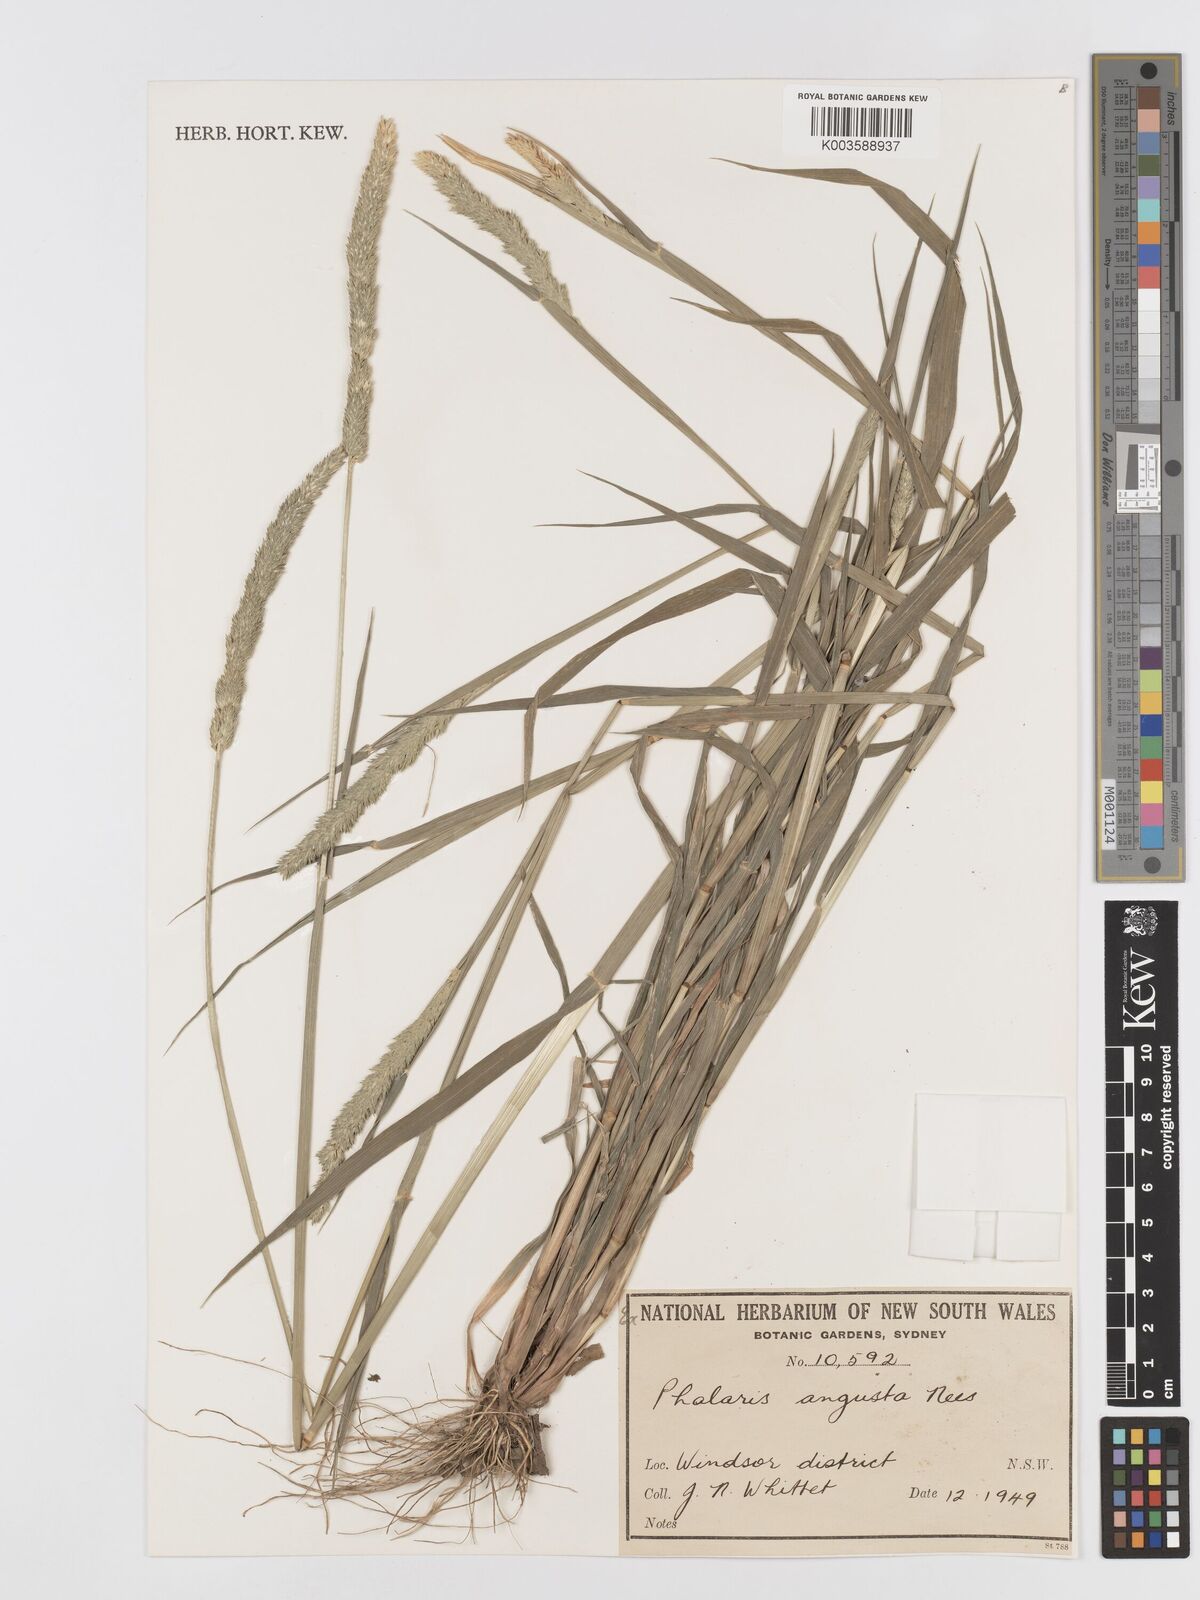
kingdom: Plantae
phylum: Tracheophyta
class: Liliopsida
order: Poales
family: Poaceae
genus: Phalaris
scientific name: Phalaris angusta
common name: Narrow canary grass
